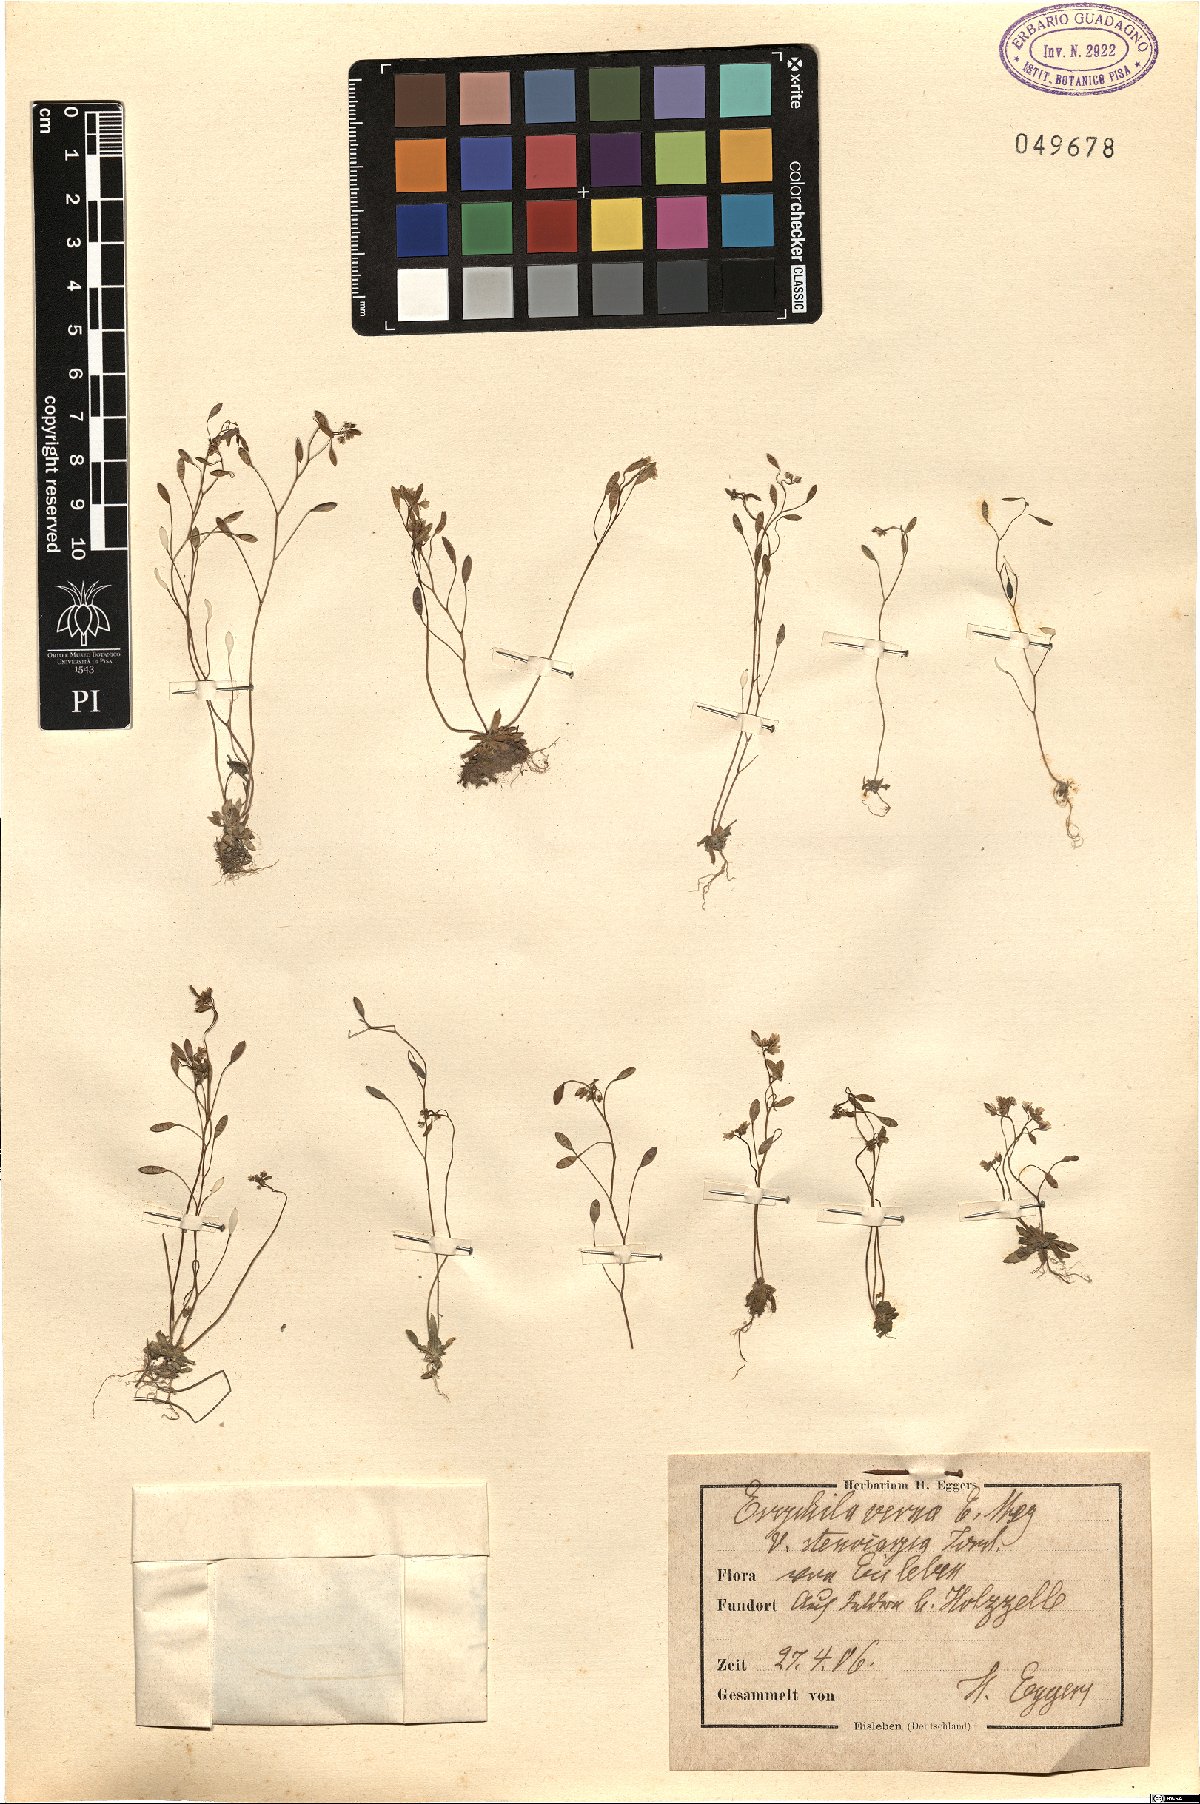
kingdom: Plantae
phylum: Tracheophyta
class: Magnoliopsida
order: Brassicales
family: Brassicaceae
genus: Draba
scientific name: Draba verna
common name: Spring draba
